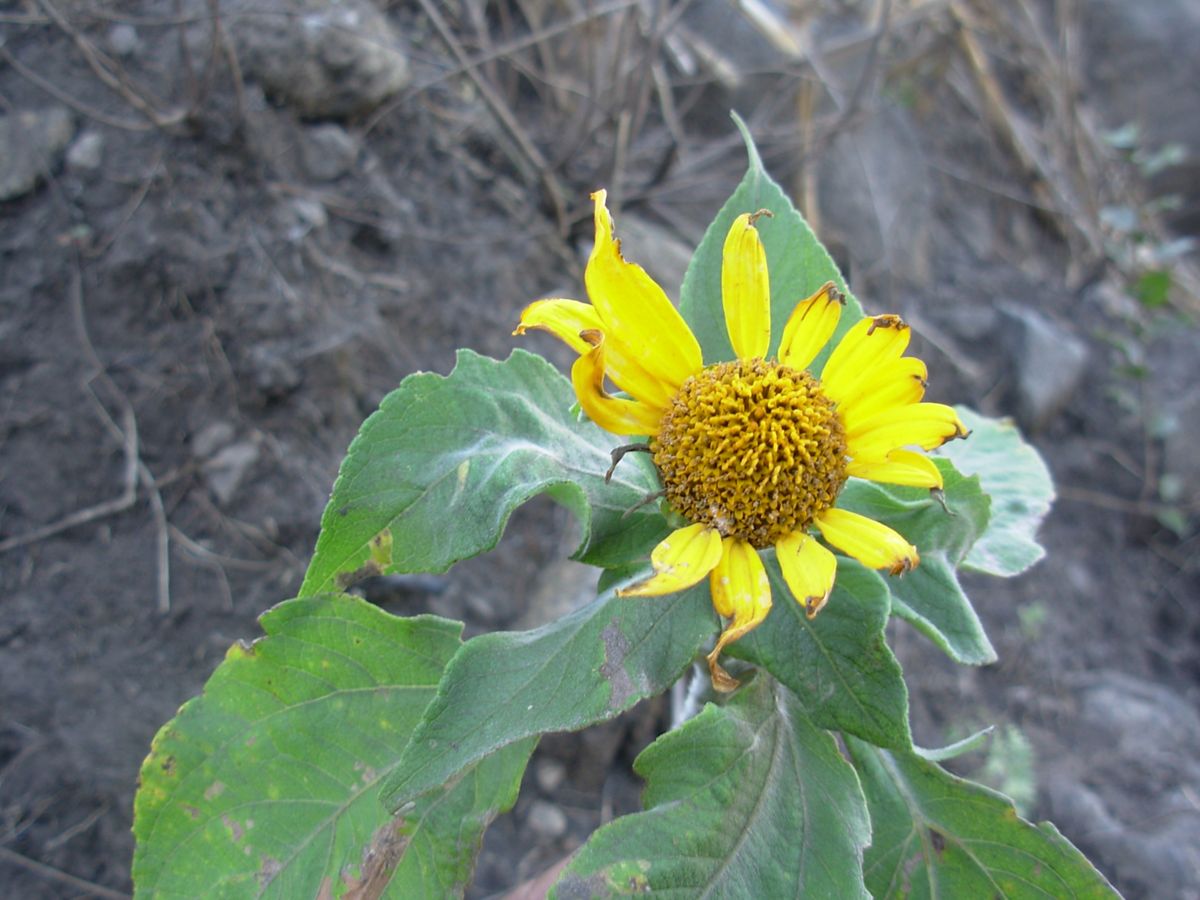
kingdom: Plantae
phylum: Tracheophyta
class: Magnoliopsida
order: Asterales
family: Asteraceae
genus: Tithonia
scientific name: Tithonia rotundifolia
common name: Sunflower
